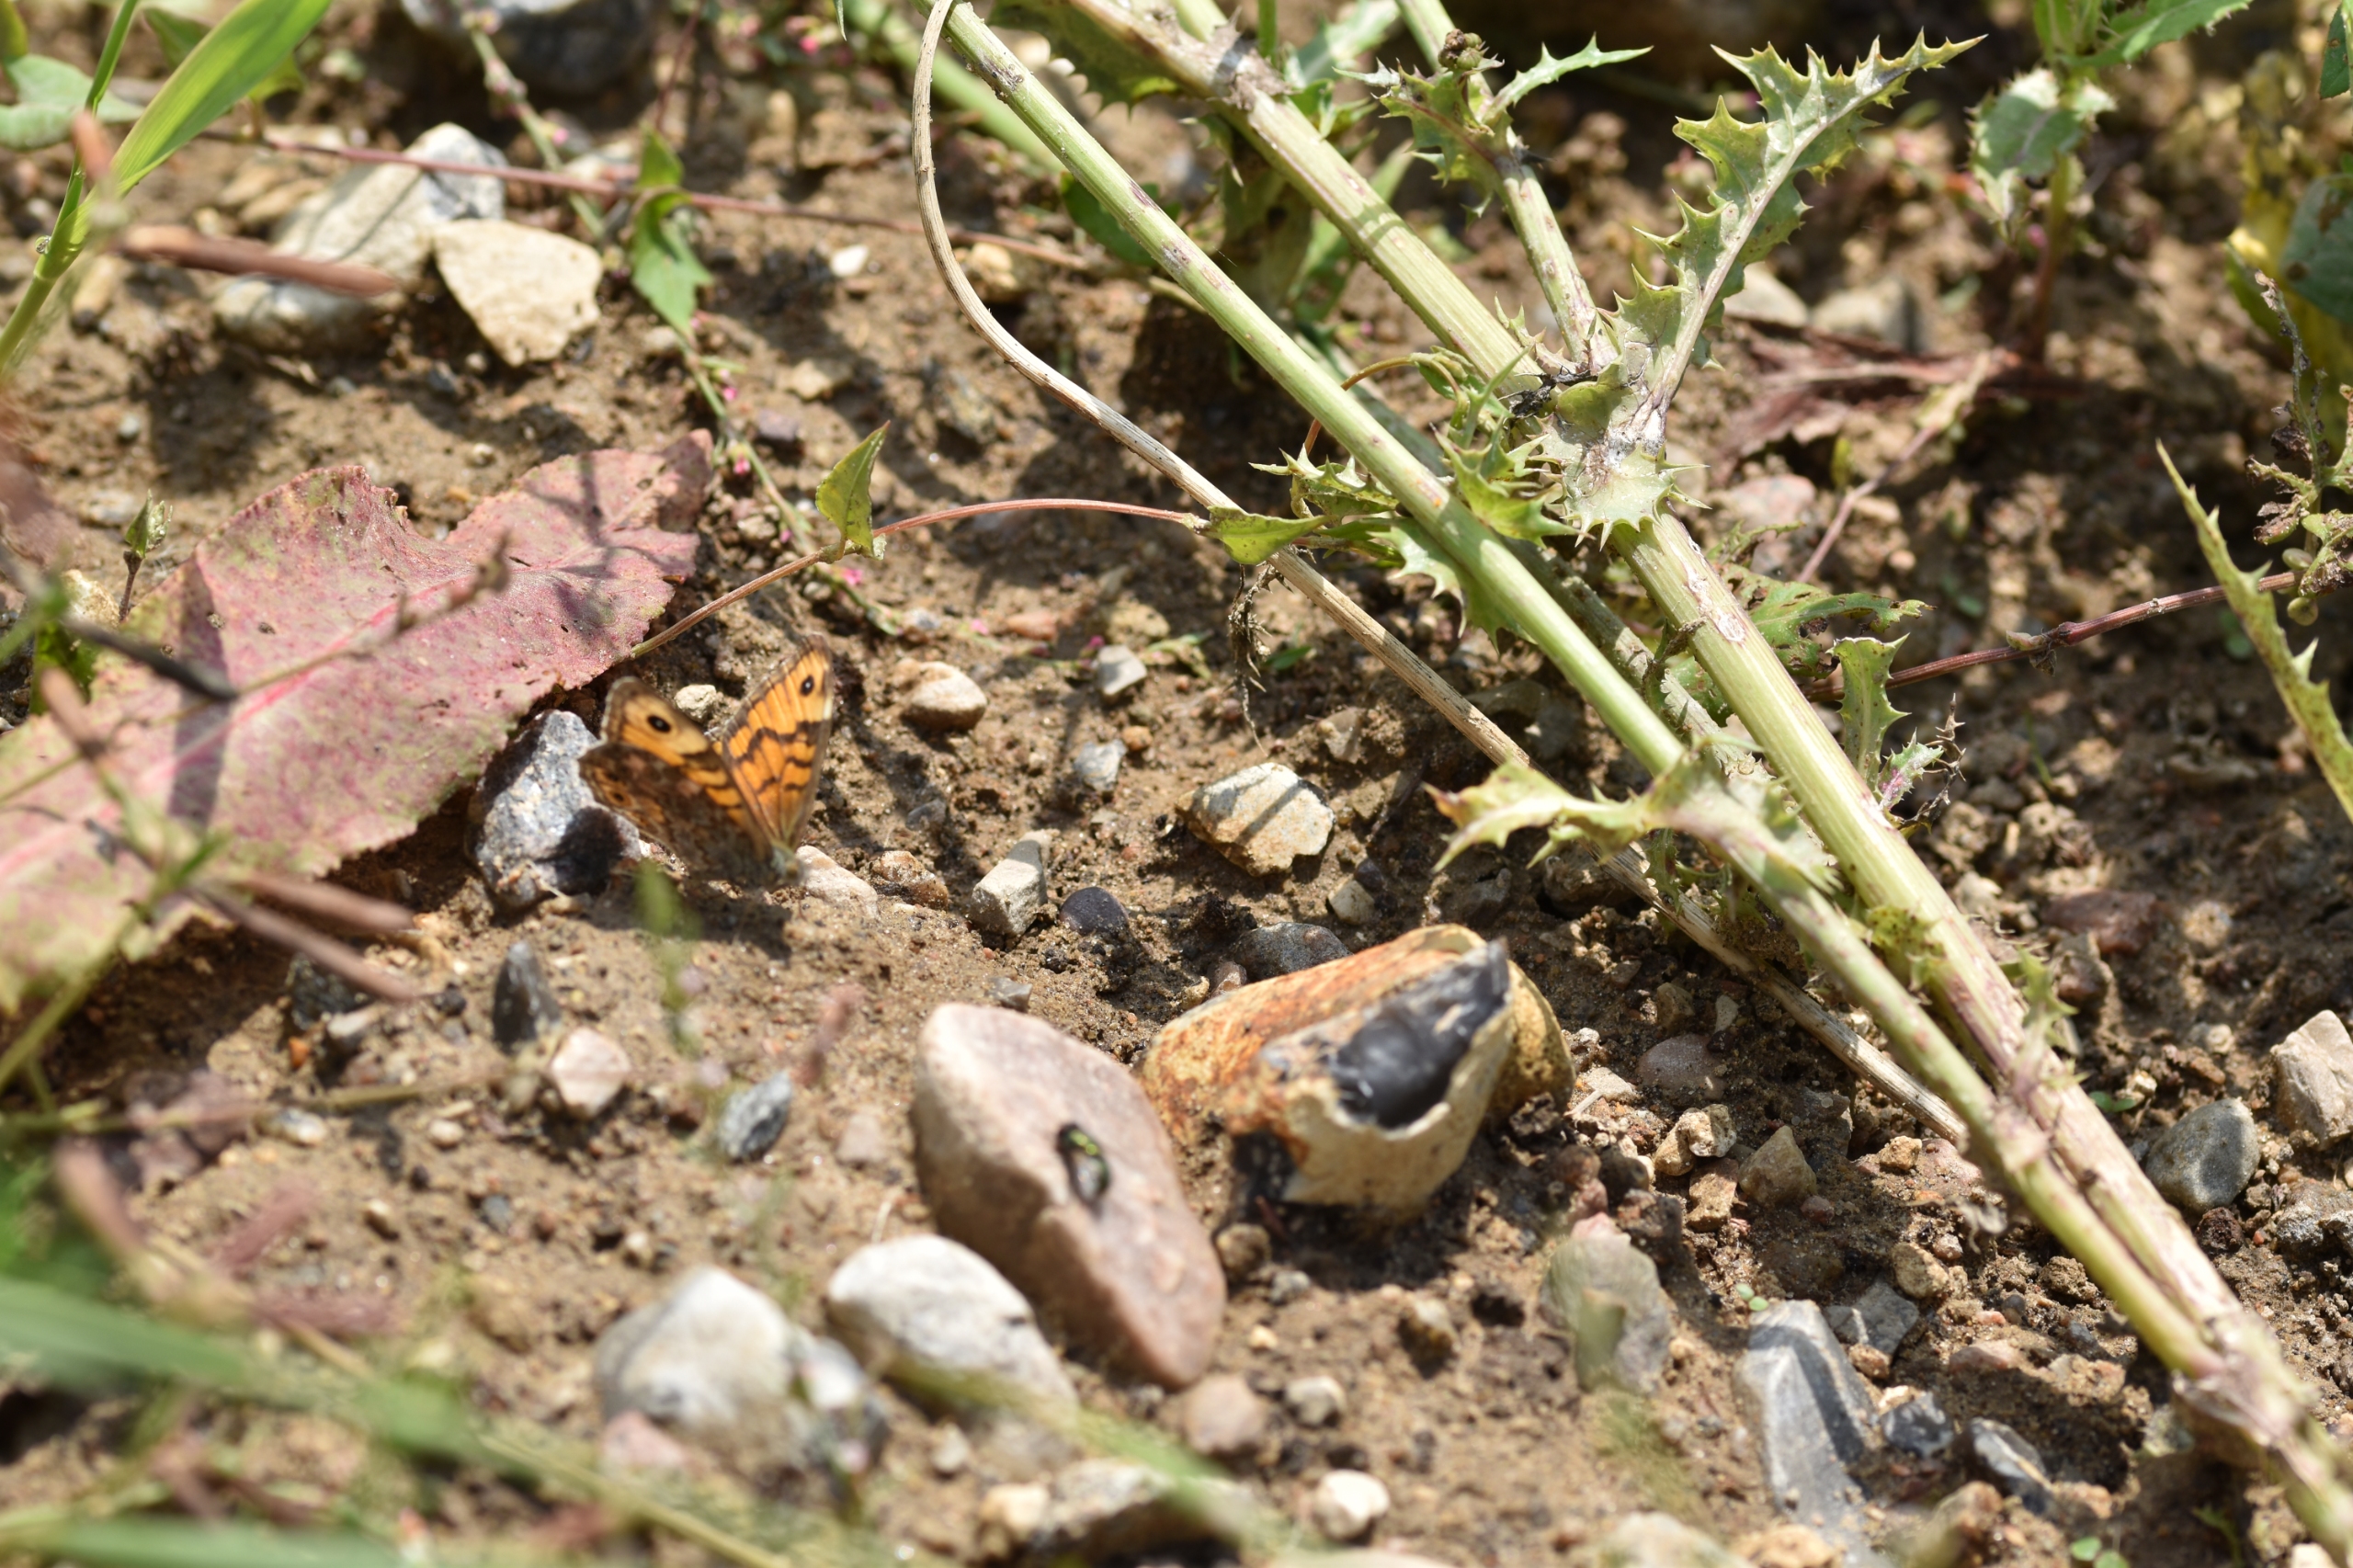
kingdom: Animalia
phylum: Arthropoda
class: Insecta
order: Lepidoptera
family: Nymphalidae
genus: Pararge
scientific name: Pararge Lasiommata megera
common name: Vejrandøje
